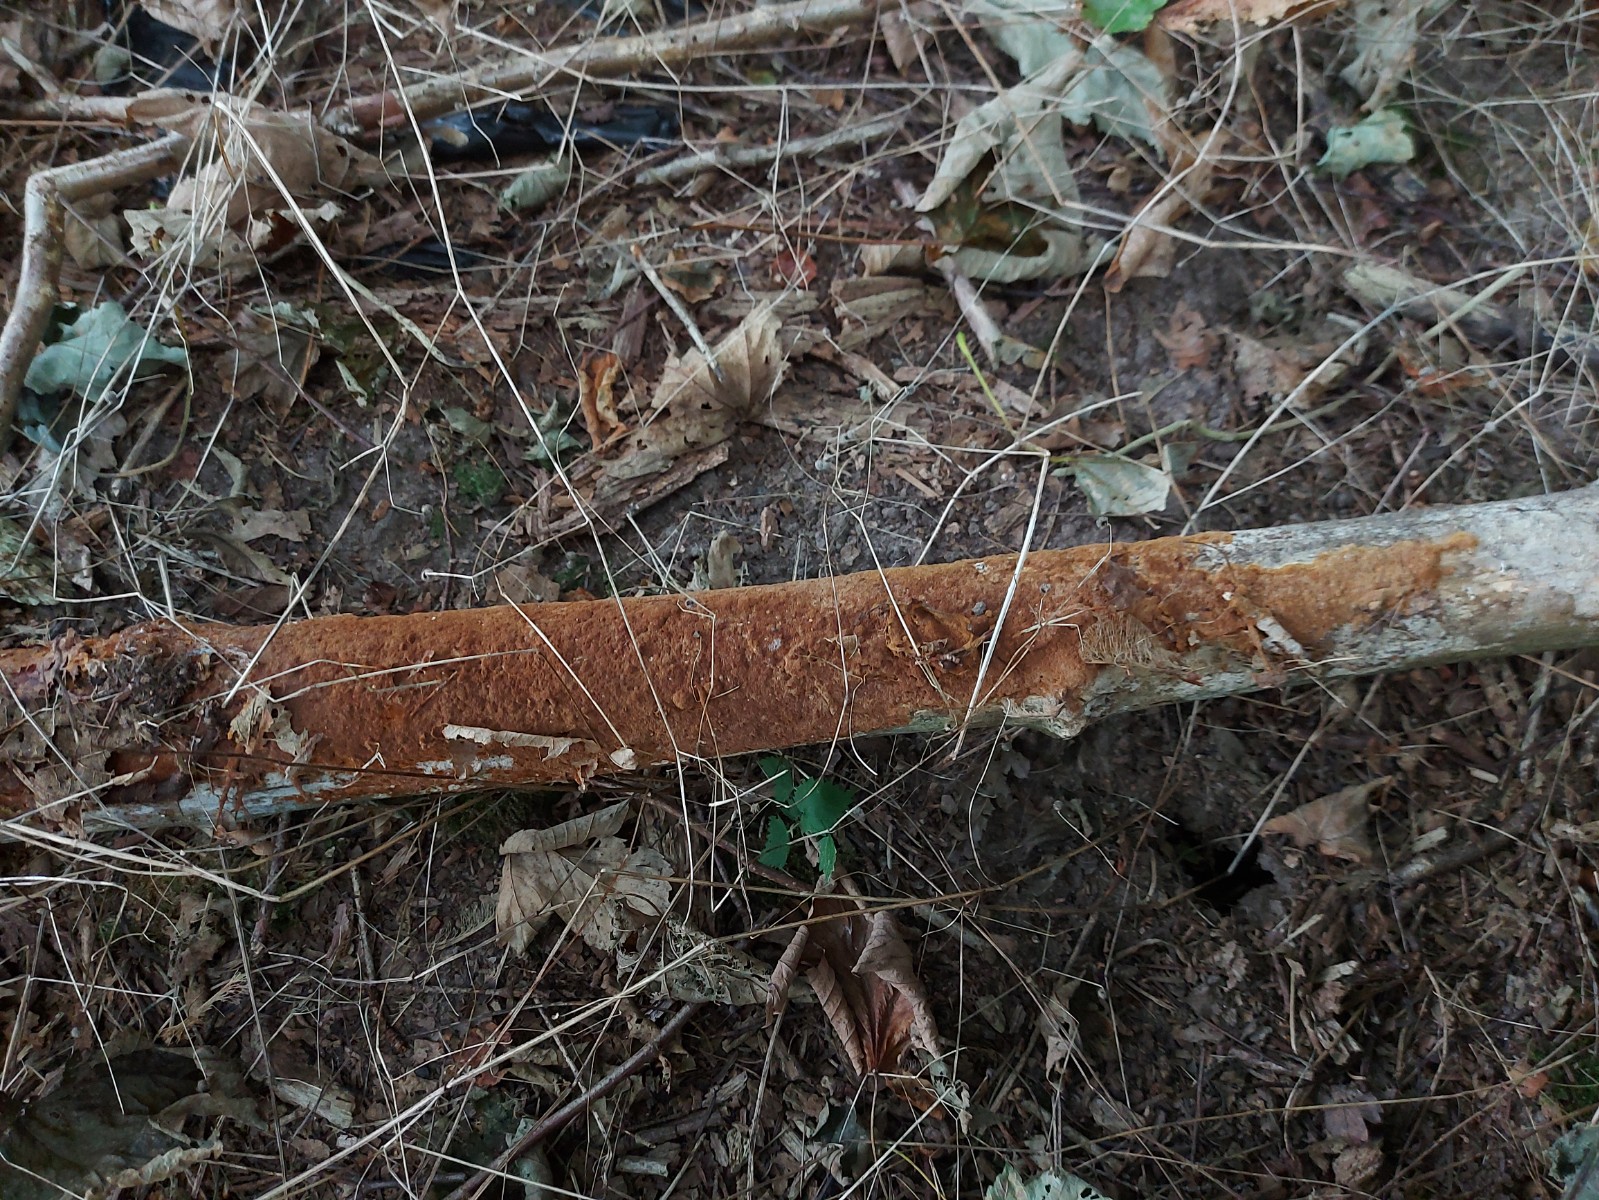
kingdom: Fungi
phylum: Basidiomycota
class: Agaricomycetes
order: Hymenochaetales
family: Hymenochaetaceae
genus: Fuscoporia
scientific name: Fuscoporia ferrea
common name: skorpe-ildporesvamp
